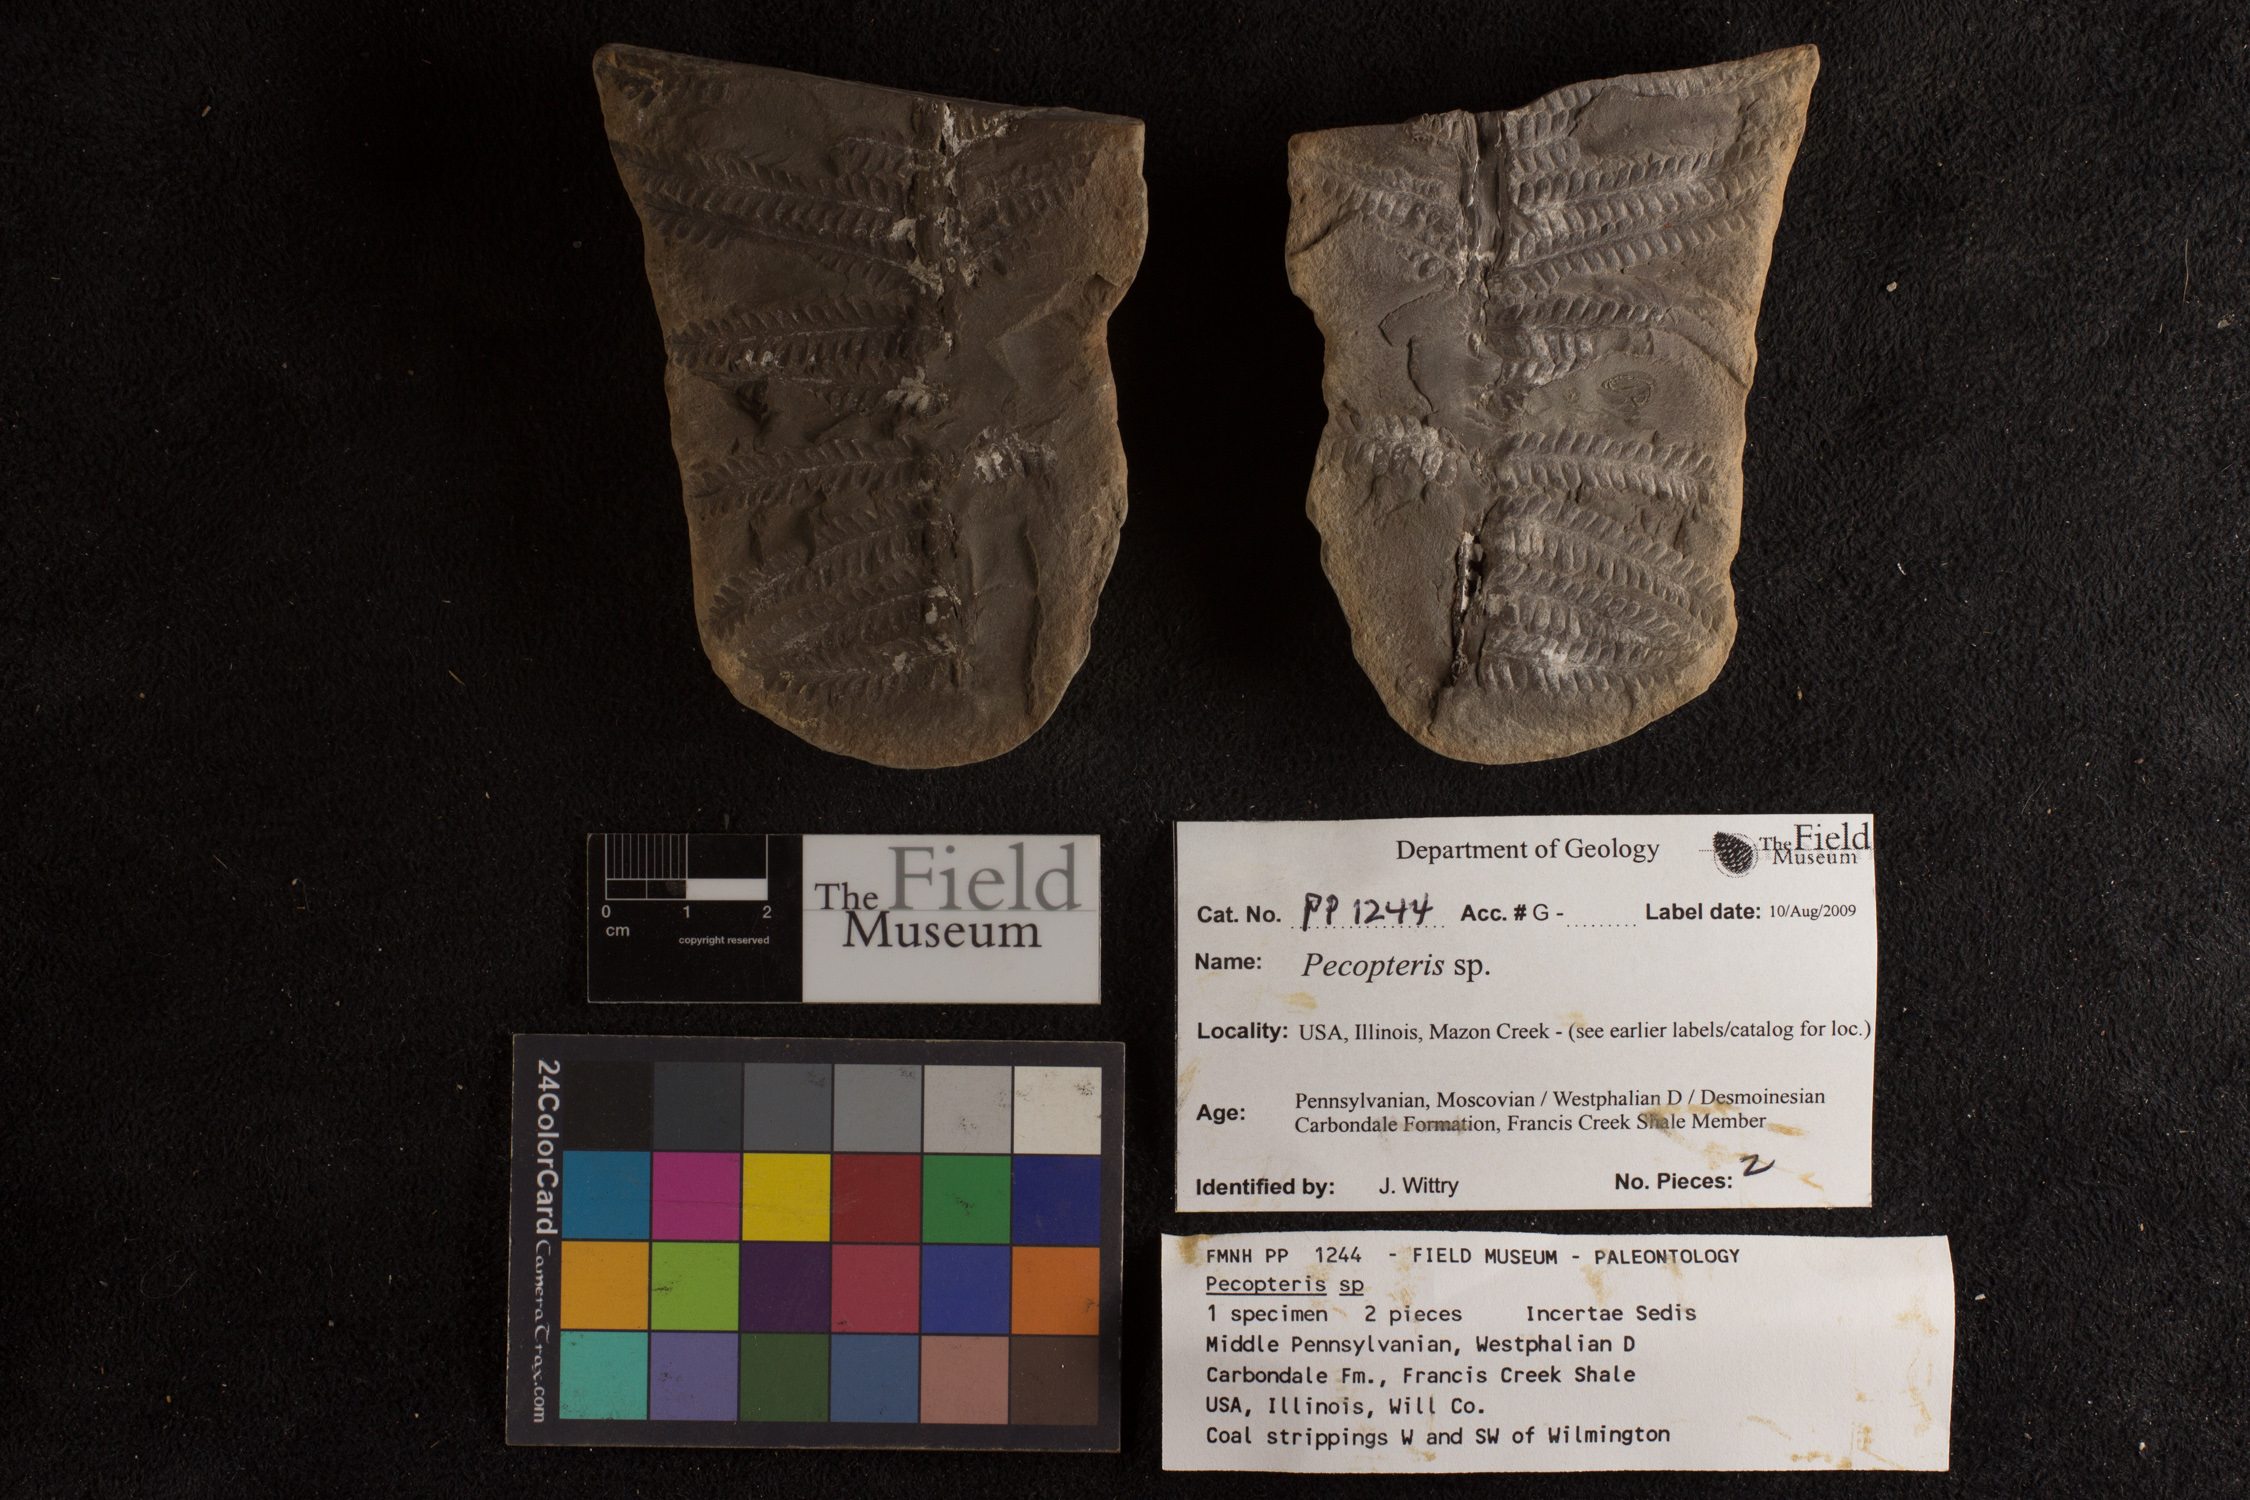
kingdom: Plantae
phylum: Tracheophyta
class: Polypodiopsida
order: Marattiales
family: Asterothecaceae
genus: Pecopteris
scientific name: Pecopteris
